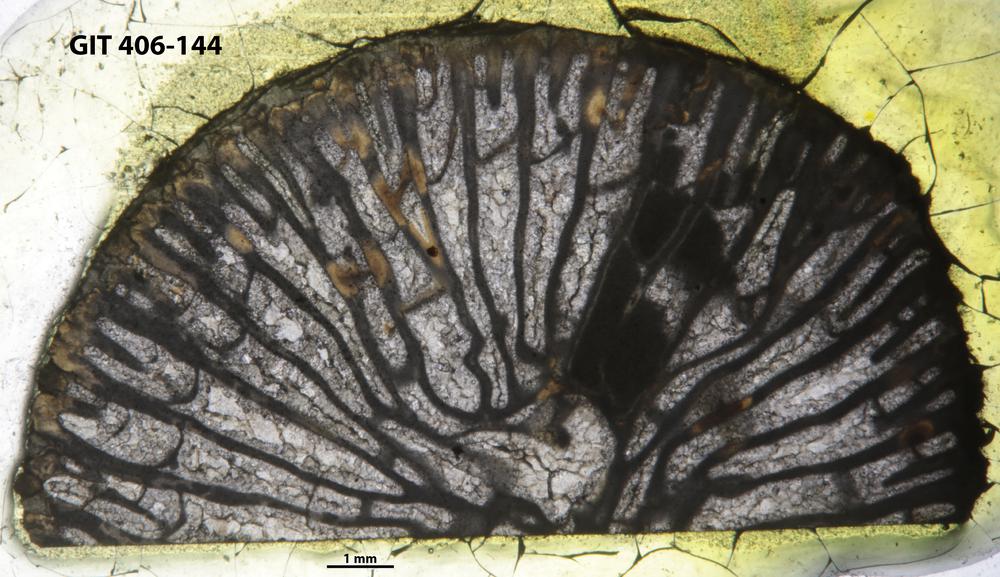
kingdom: Animalia
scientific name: Animalia
